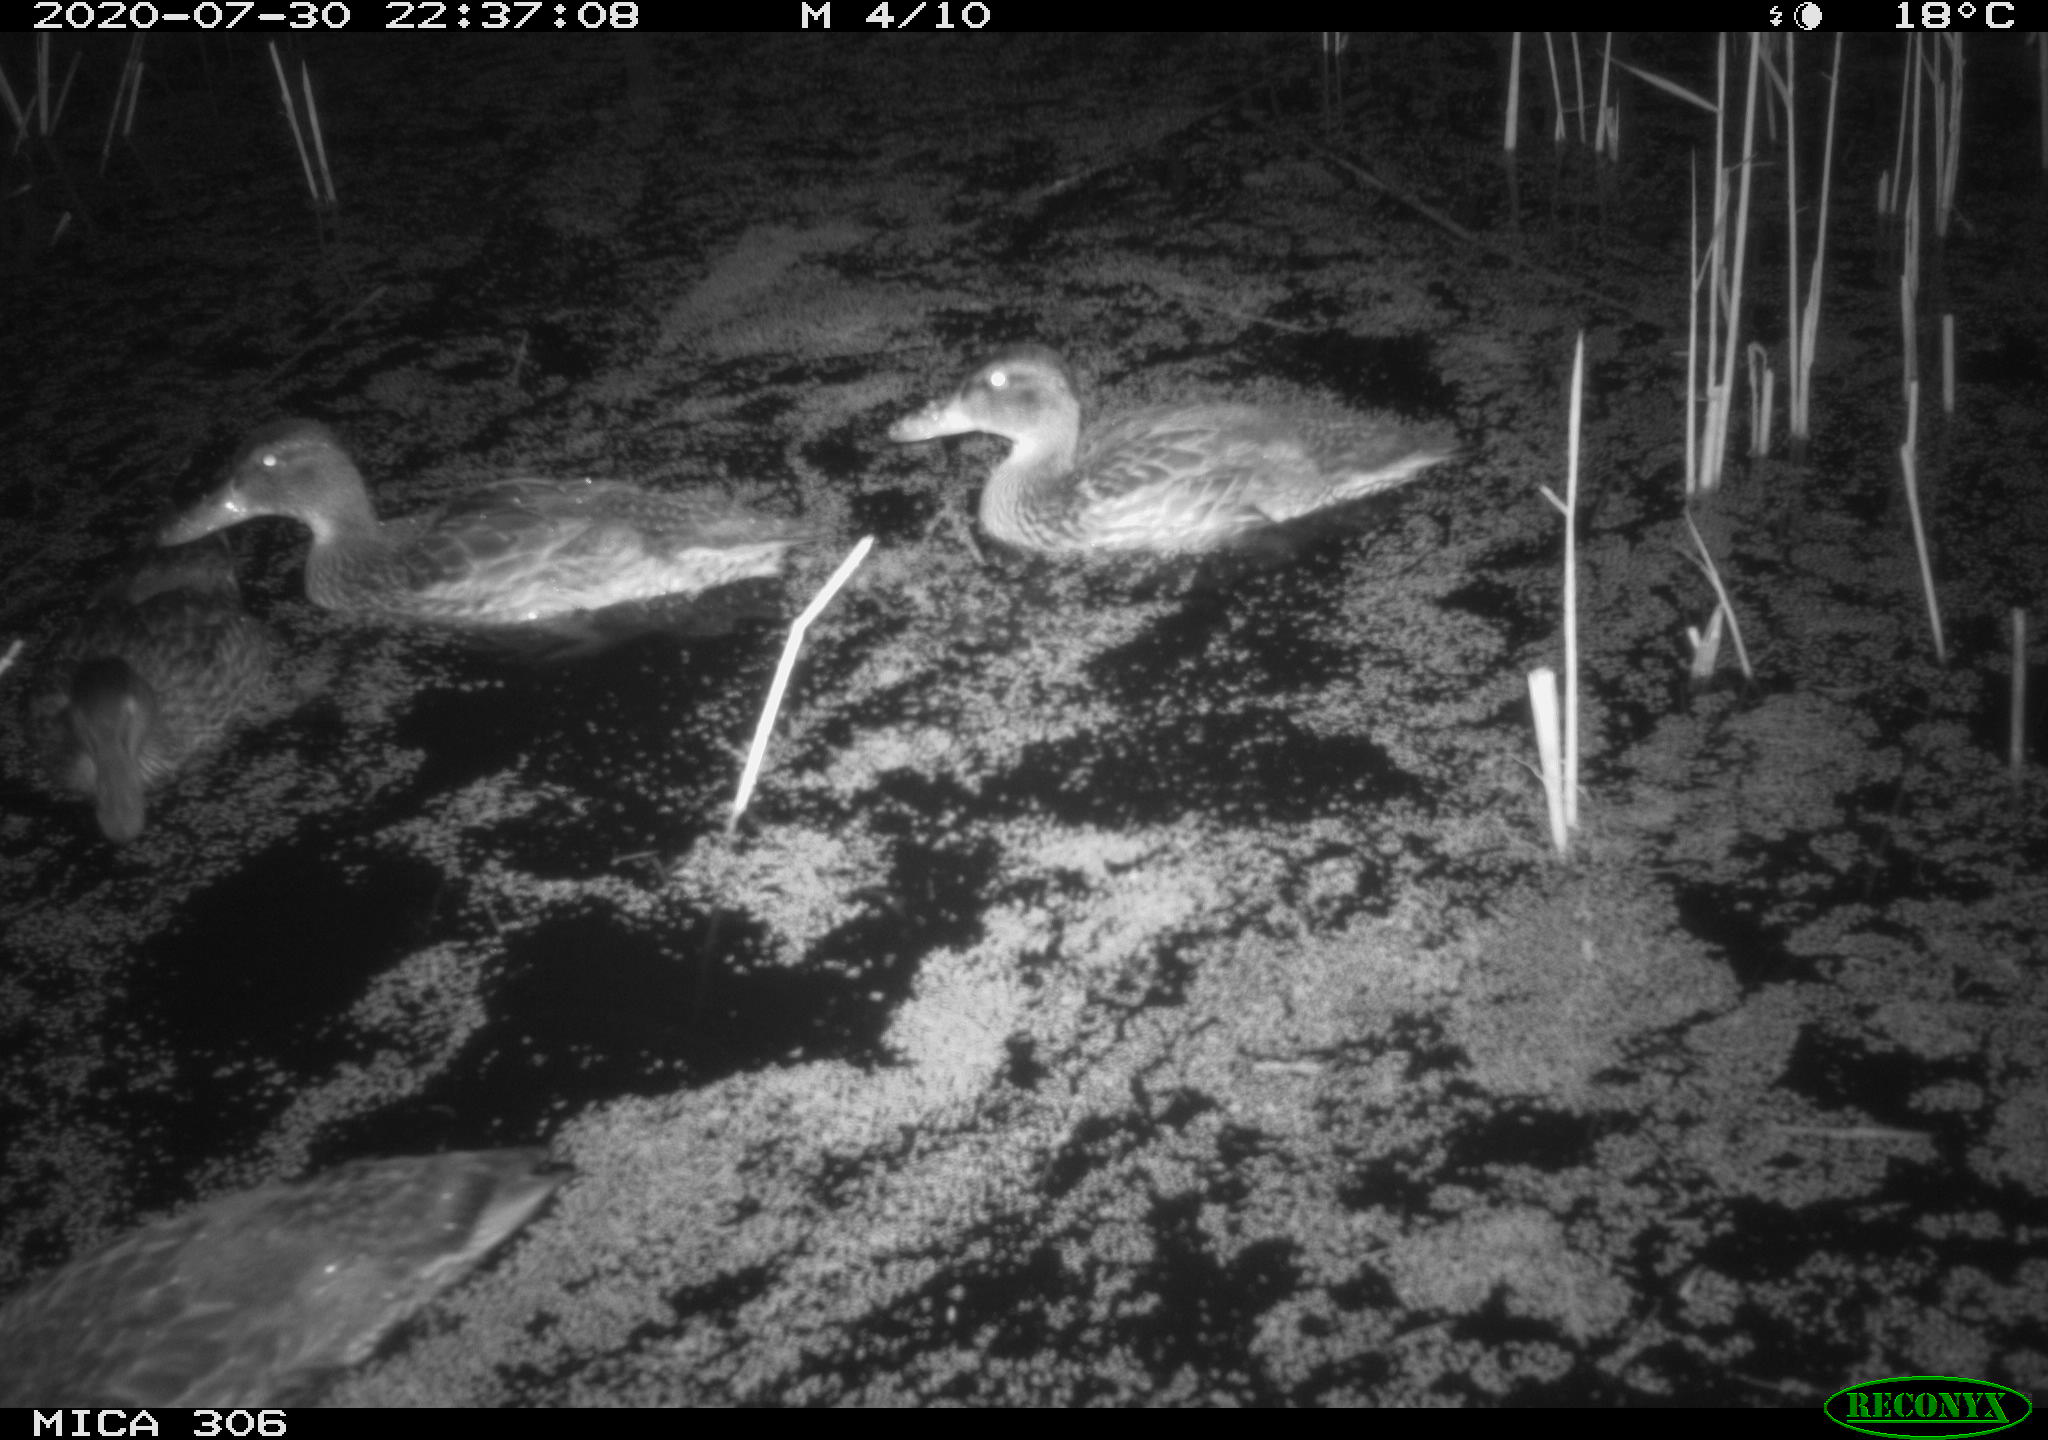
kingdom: Animalia
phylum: Chordata
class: Aves
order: Anseriformes
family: Anatidae
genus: Anas
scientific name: Anas platyrhynchos
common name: Mallard
